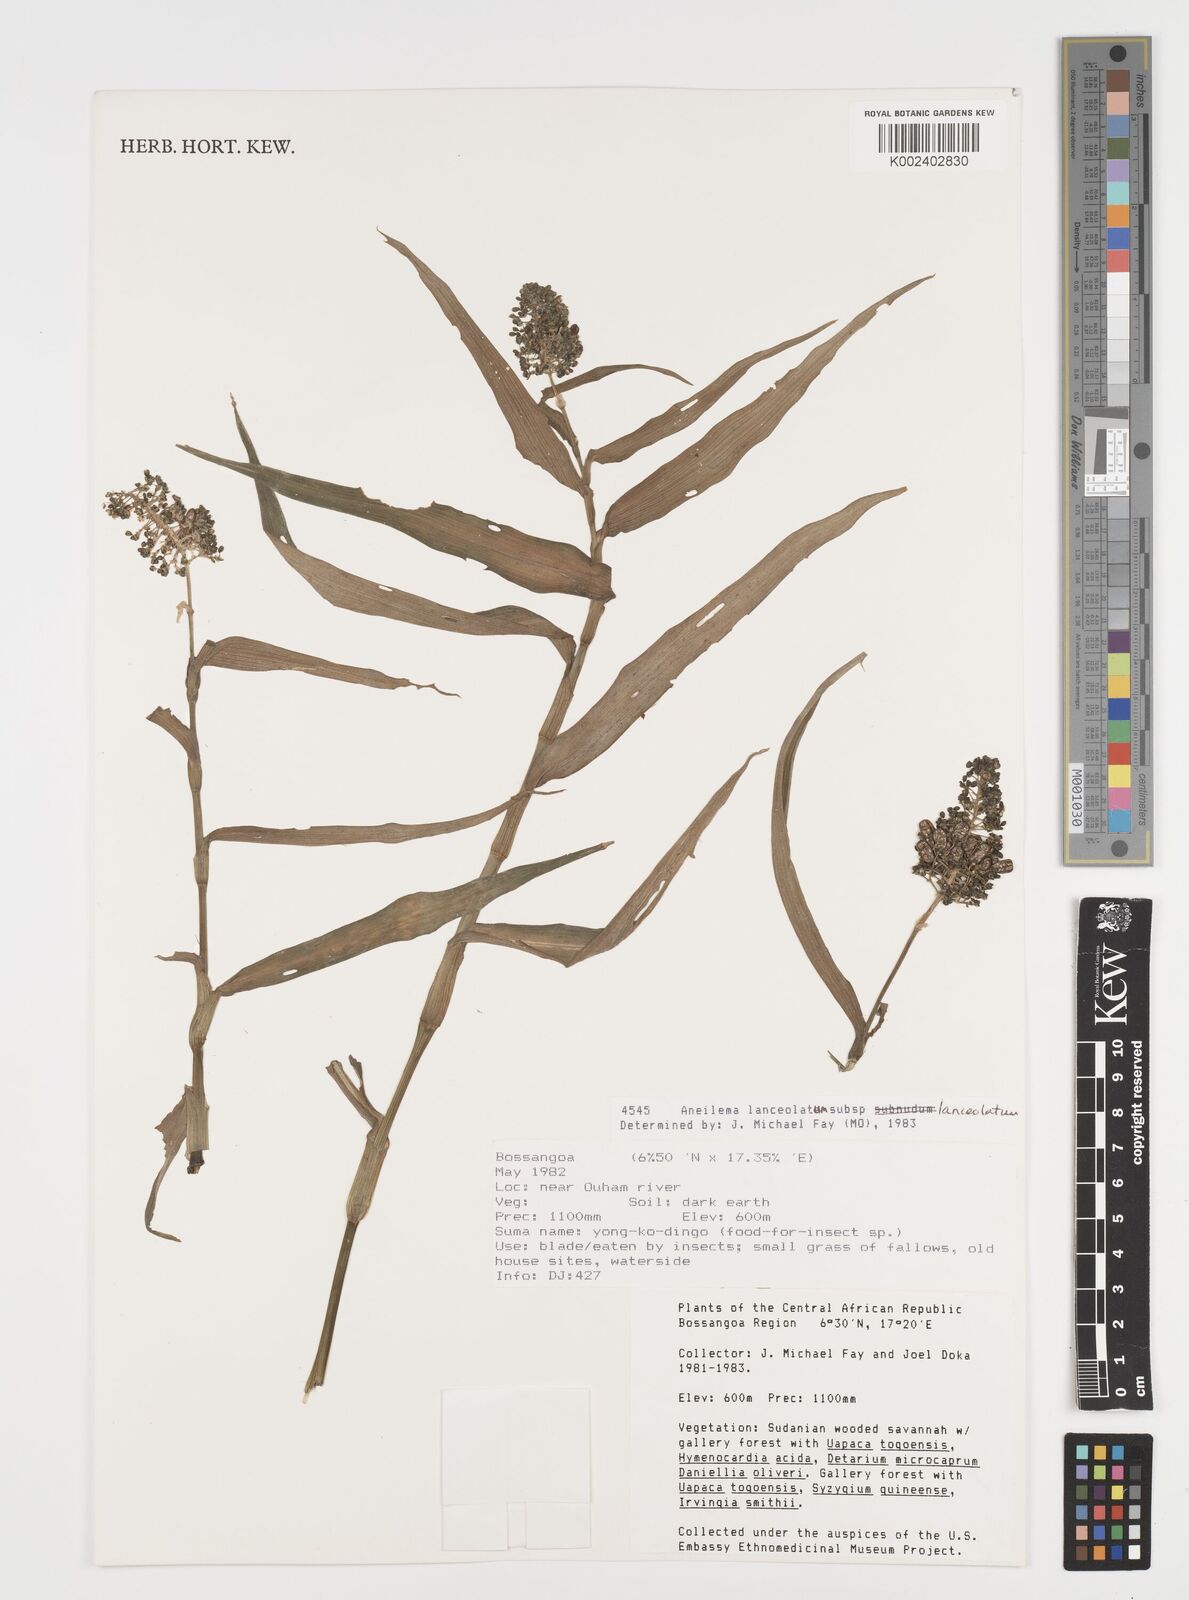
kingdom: Plantae
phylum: Tracheophyta
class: Liliopsida
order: Commelinales
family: Commelinaceae
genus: Aneilema
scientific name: Aneilema lanceolatum
